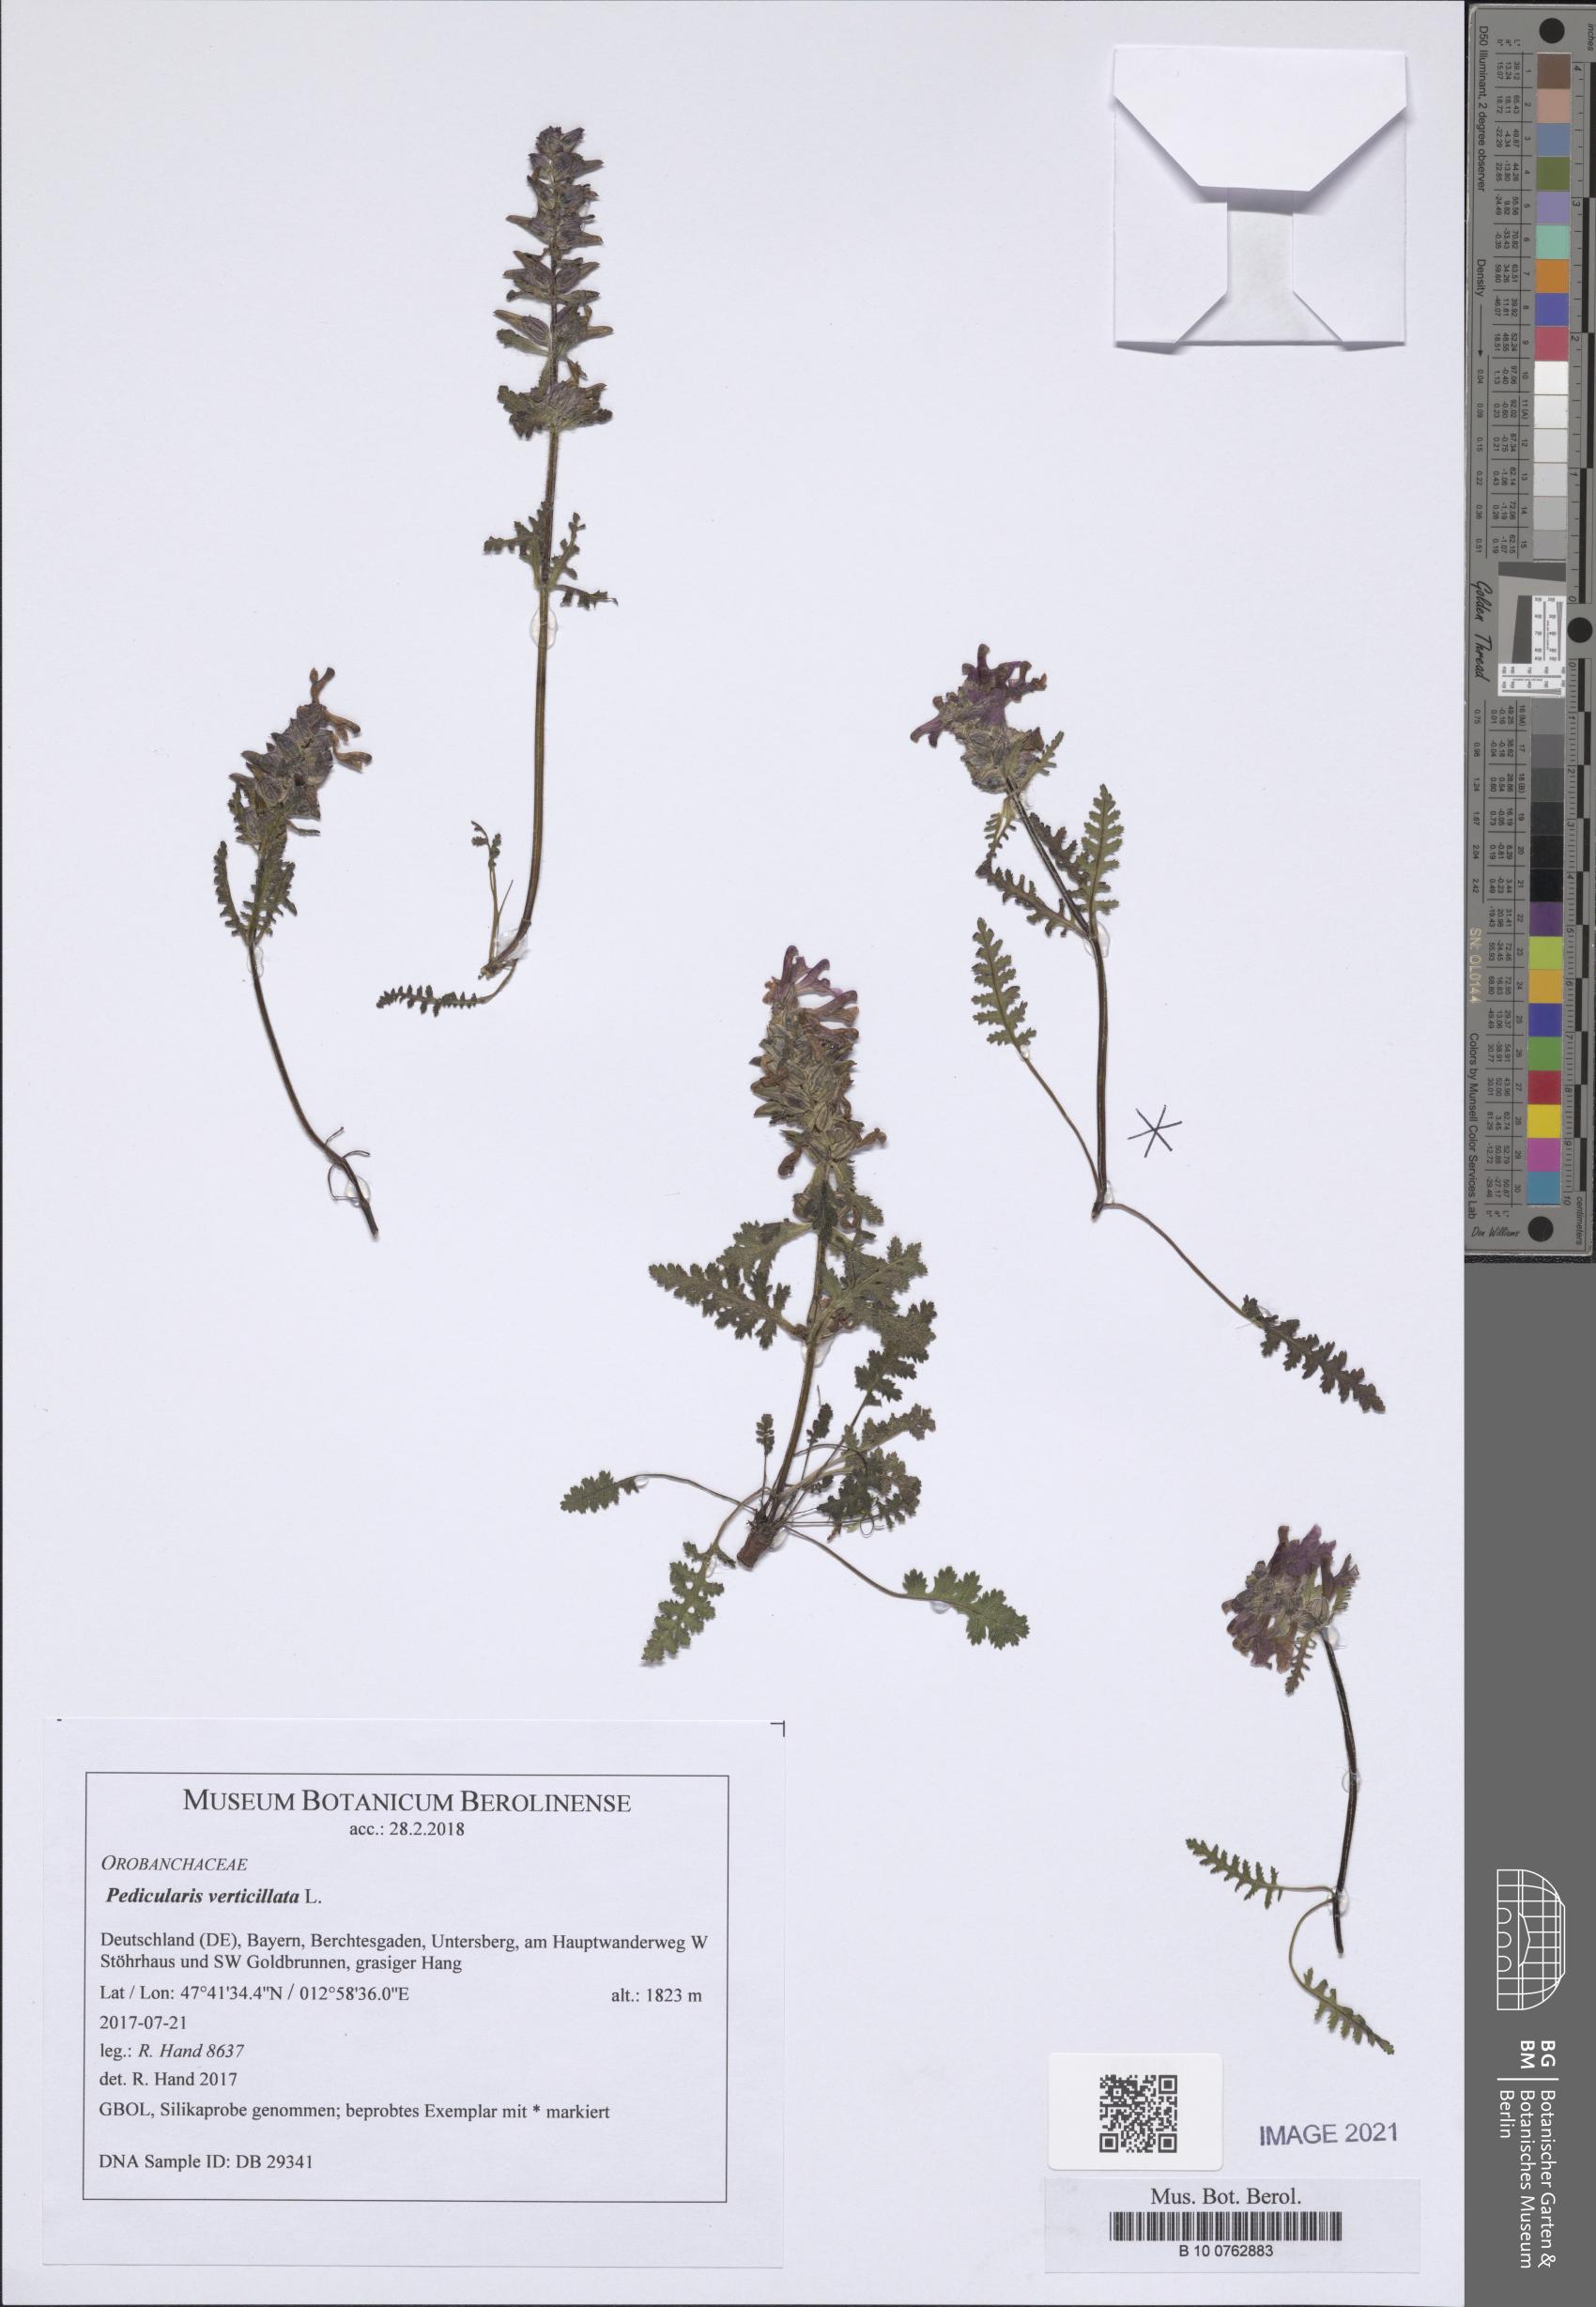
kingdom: Plantae
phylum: Tracheophyta
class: Magnoliopsida
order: Lamiales
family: Orobanchaceae
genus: Pedicularis
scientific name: Pedicularis verticillata
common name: Whorled lousewort
